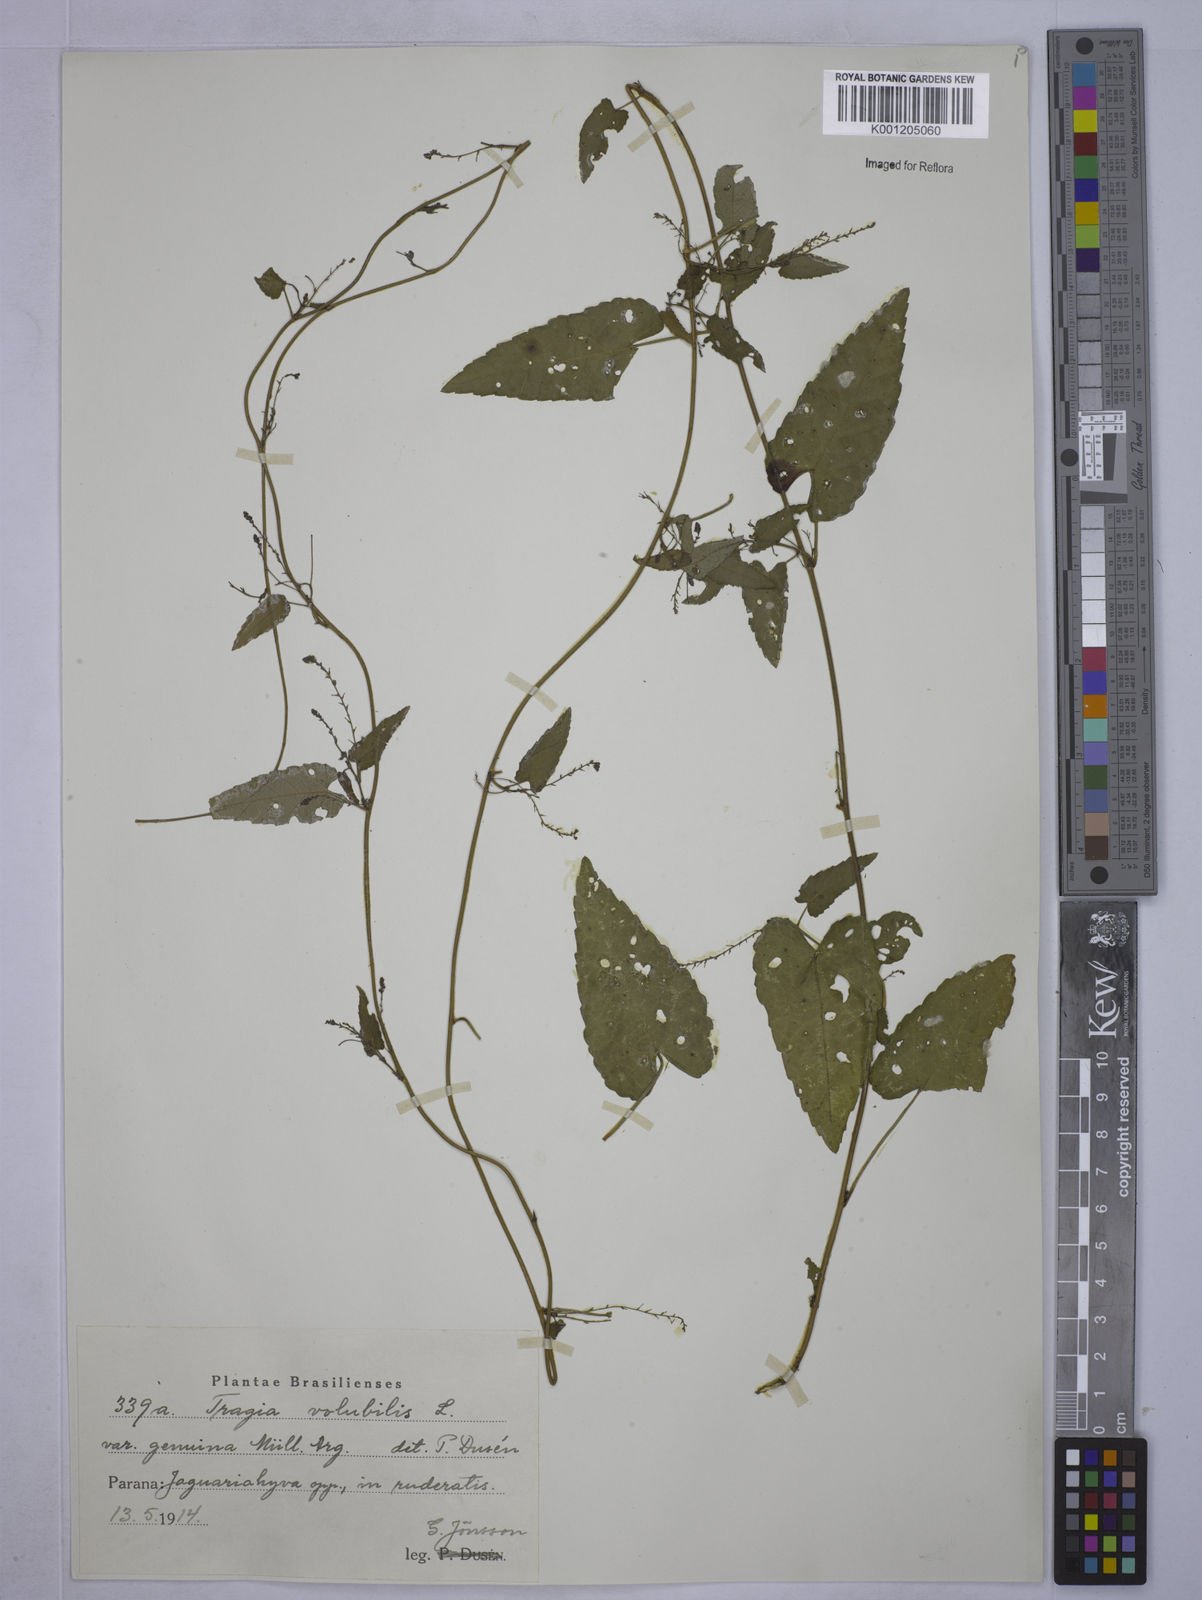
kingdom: Plantae
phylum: Tracheophyta
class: Magnoliopsida
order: Malpighiales
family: Euphorbiaceae
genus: Tragia
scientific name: Tragia volubilis
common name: Twining cow-itch
